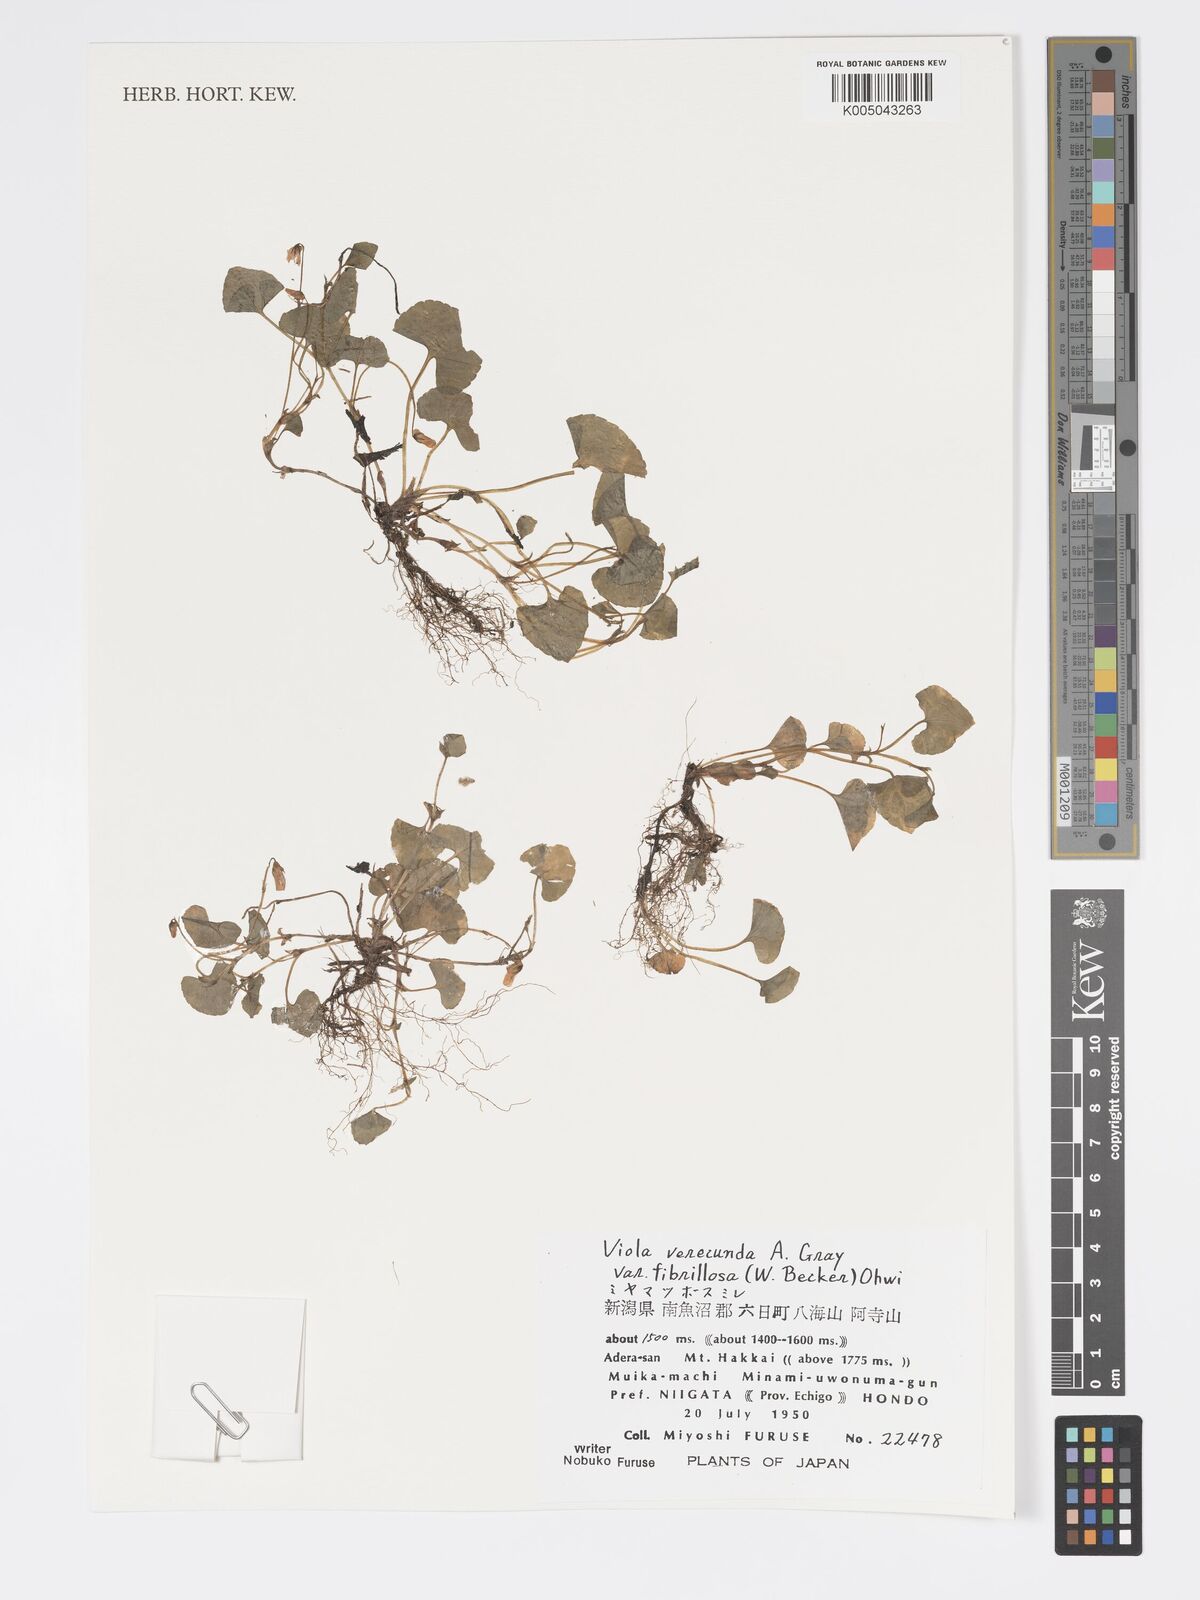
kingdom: Plantae
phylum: Tracheophyta
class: Magnoliopsida
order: Malpighiales
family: Violaceae
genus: Viola
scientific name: Viola hamiltoniana
